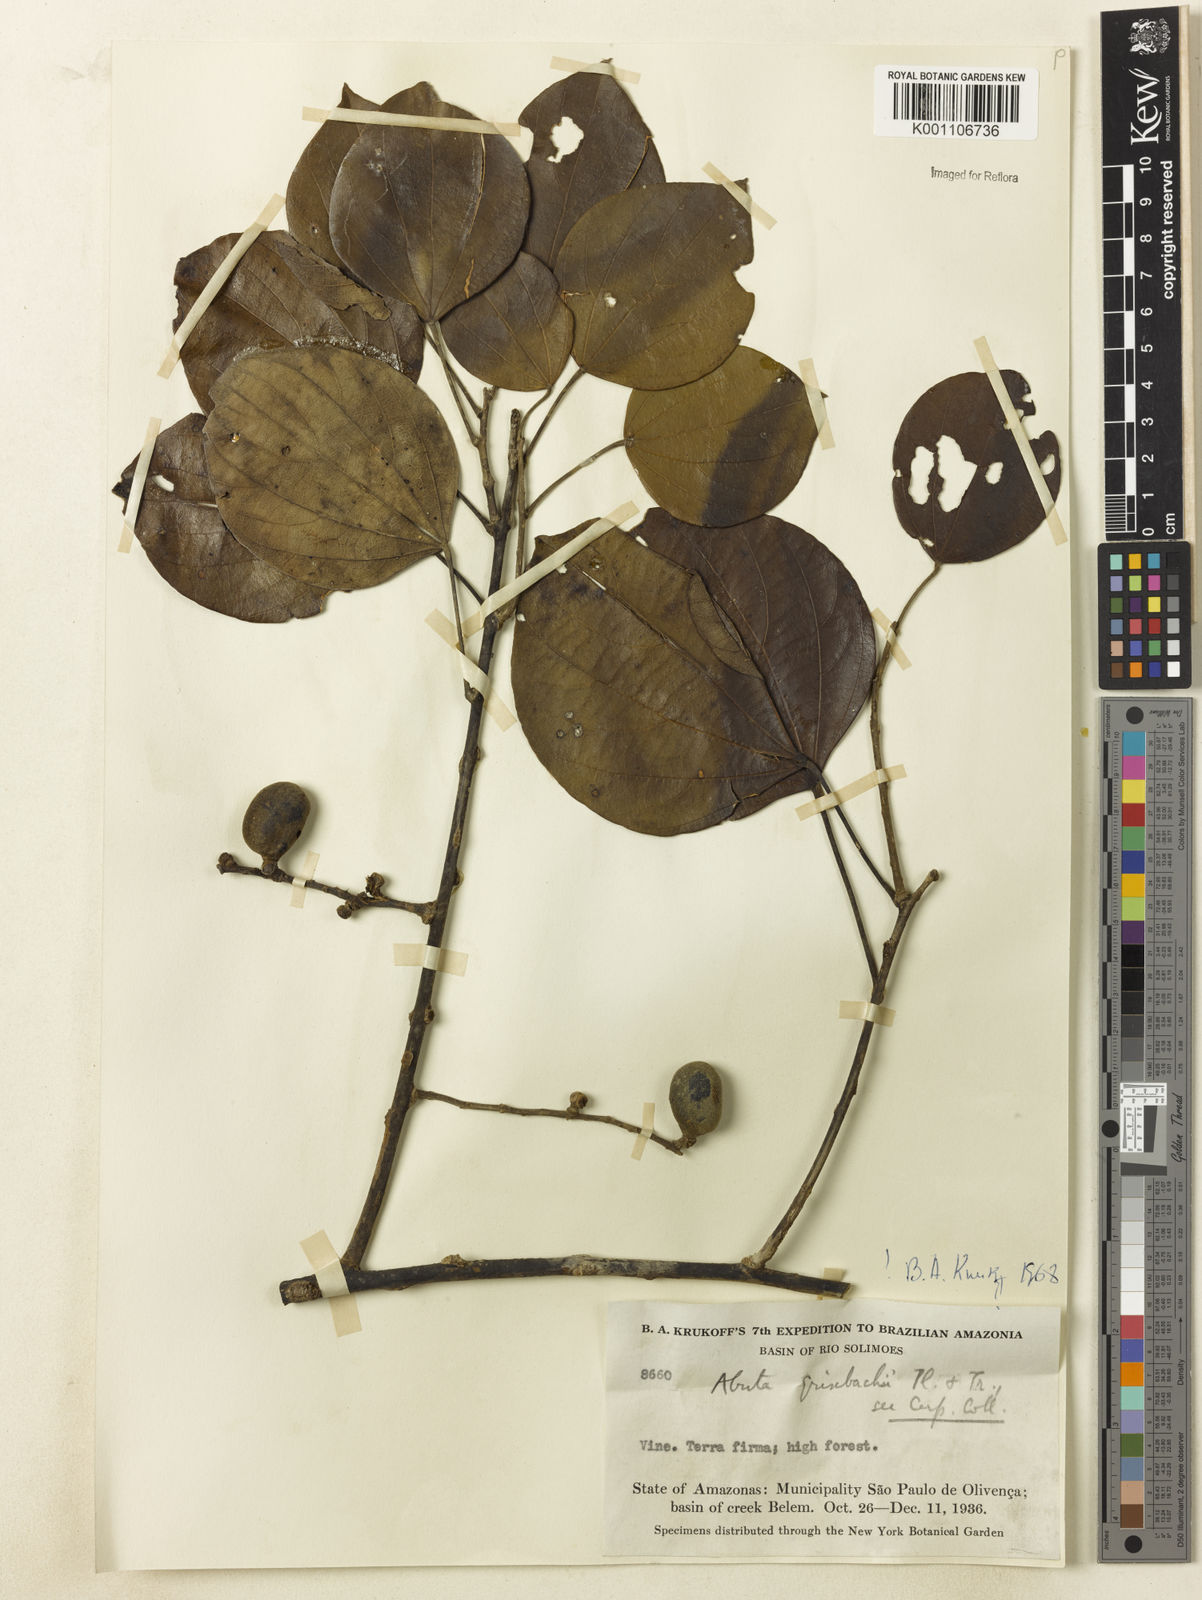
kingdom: Plantae
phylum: Tracheophyta
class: Magnoliopsida
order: Ranunculales
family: Menispermaceae
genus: Abuta
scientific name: Abuta grisebachii
